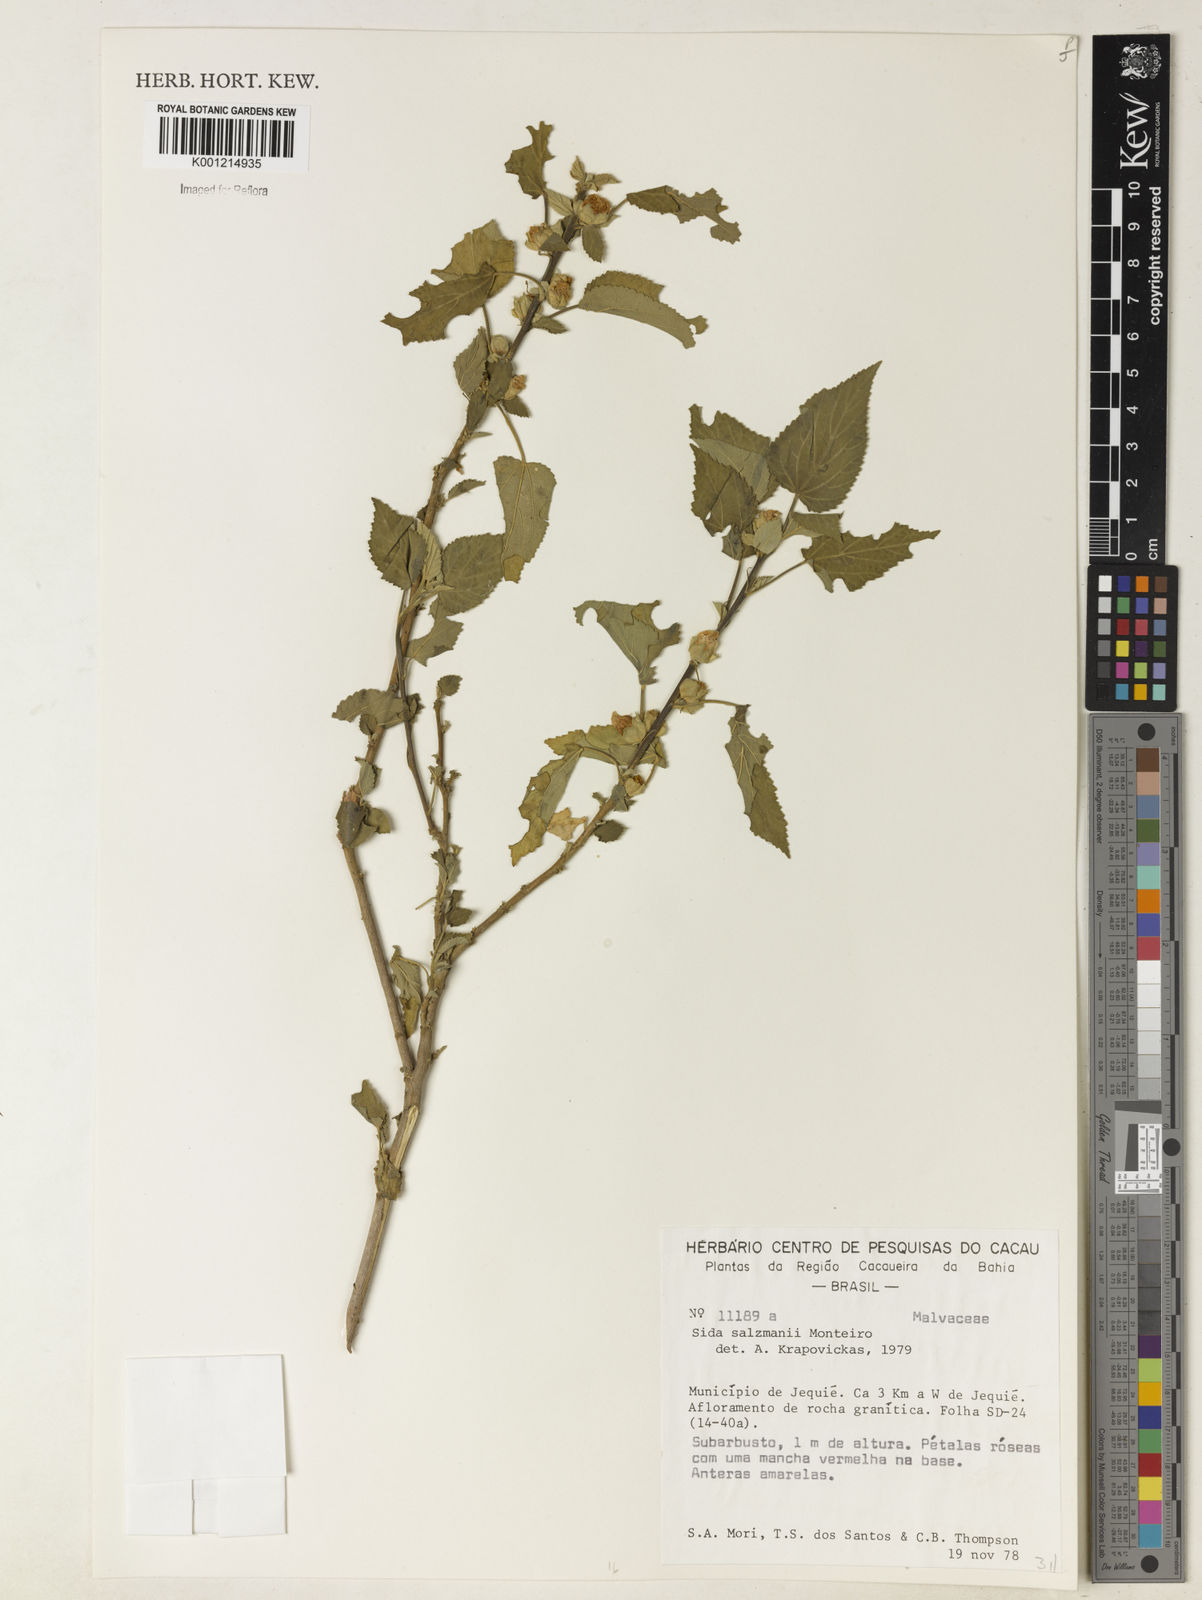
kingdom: Plantae
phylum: Tracheophyta
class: Magnoliopsida
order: Malvales
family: Malvaceae
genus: Sida
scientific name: Sida ulei
